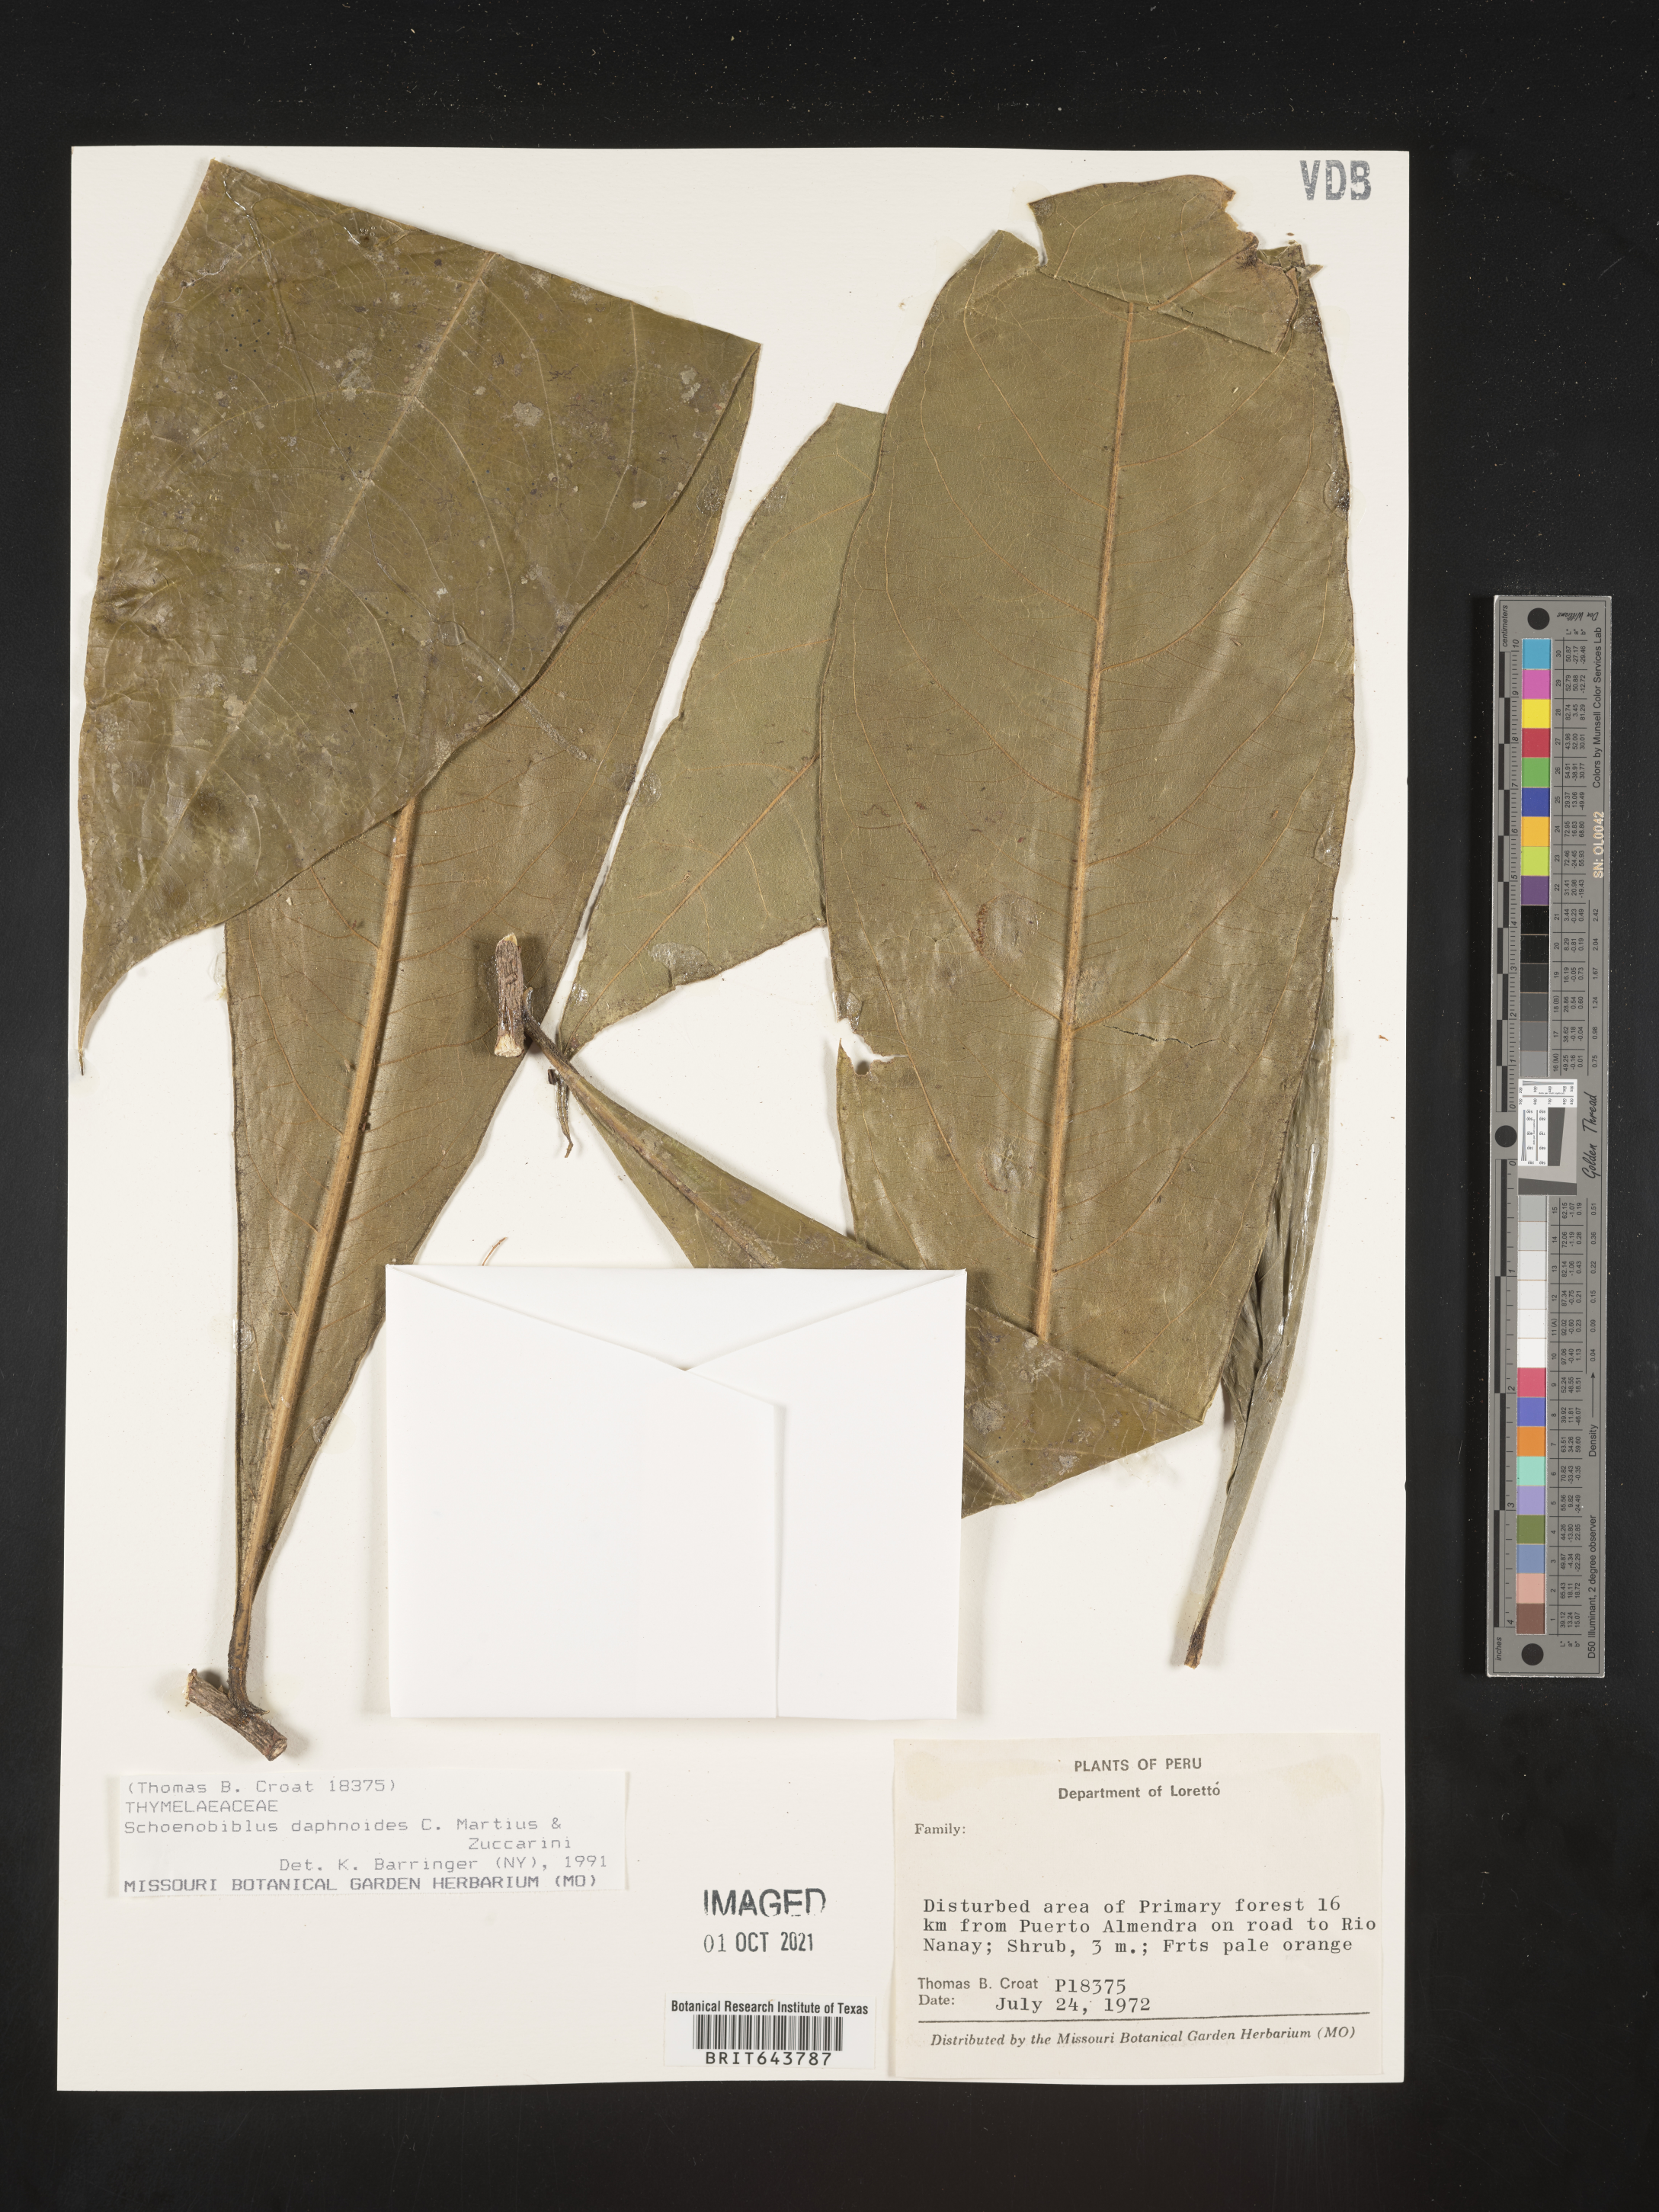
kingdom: Plantae
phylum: Tracheophyta
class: Magnoliopsida
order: Malvales
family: Thymelaeaceae
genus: Schoenobiblus
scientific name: Schoenobiblus
